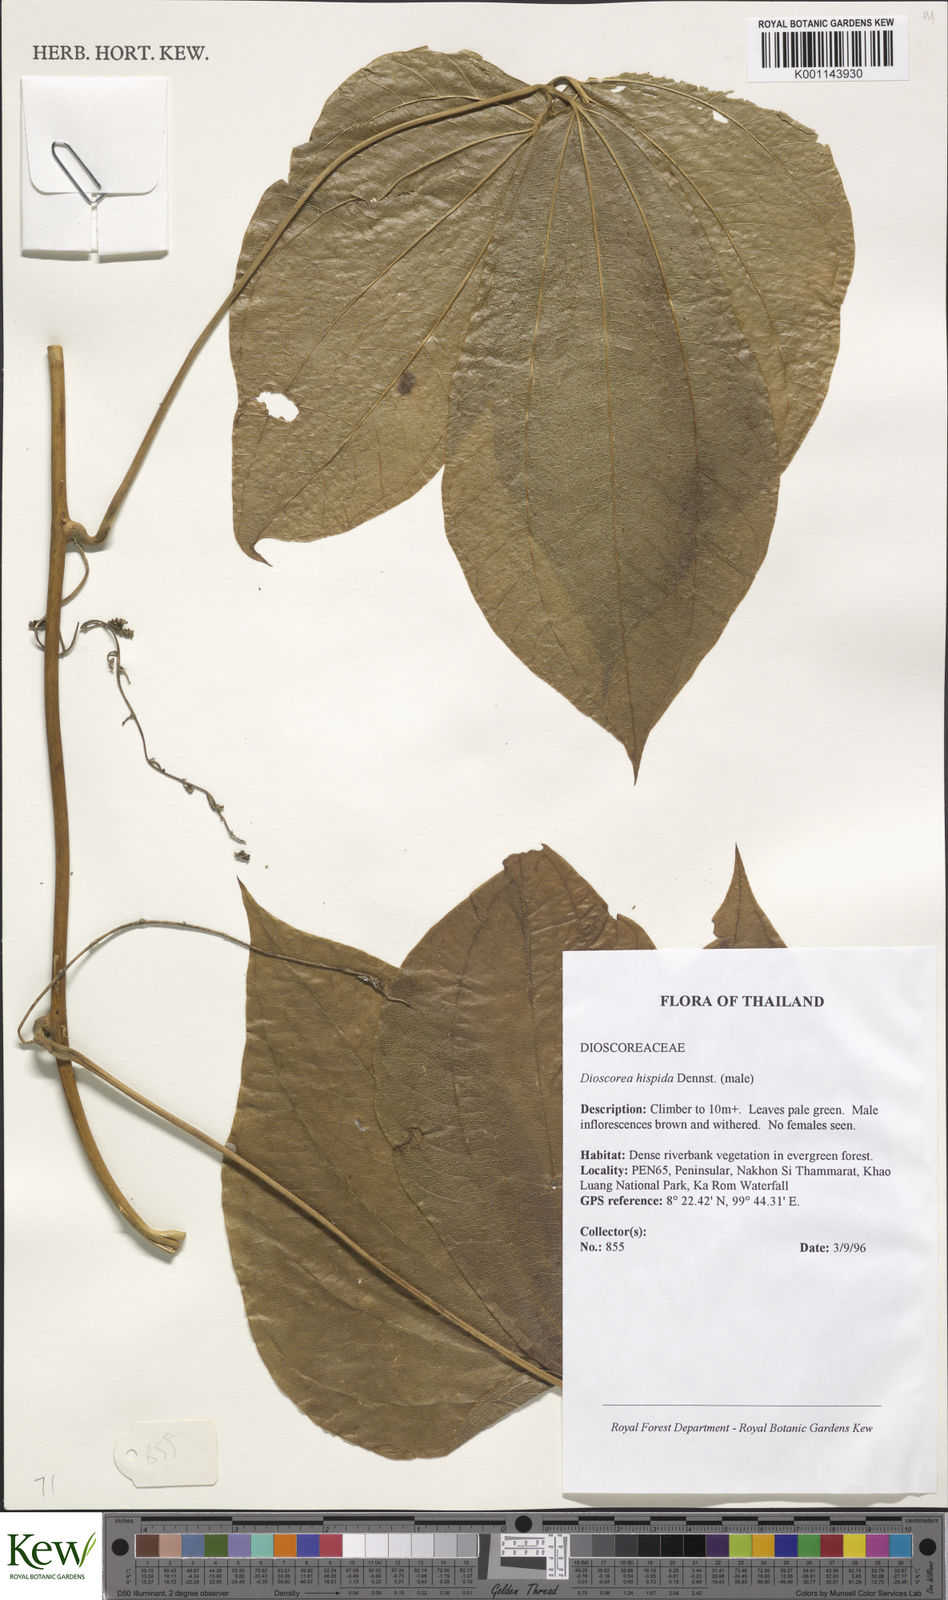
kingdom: Plantae
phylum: Tracheophyta
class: Liliopsida
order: Dioscoreales
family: Dioscoreaceae
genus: Dioscorea
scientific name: Dioscorea hispida
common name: Asiatic bitter yam
